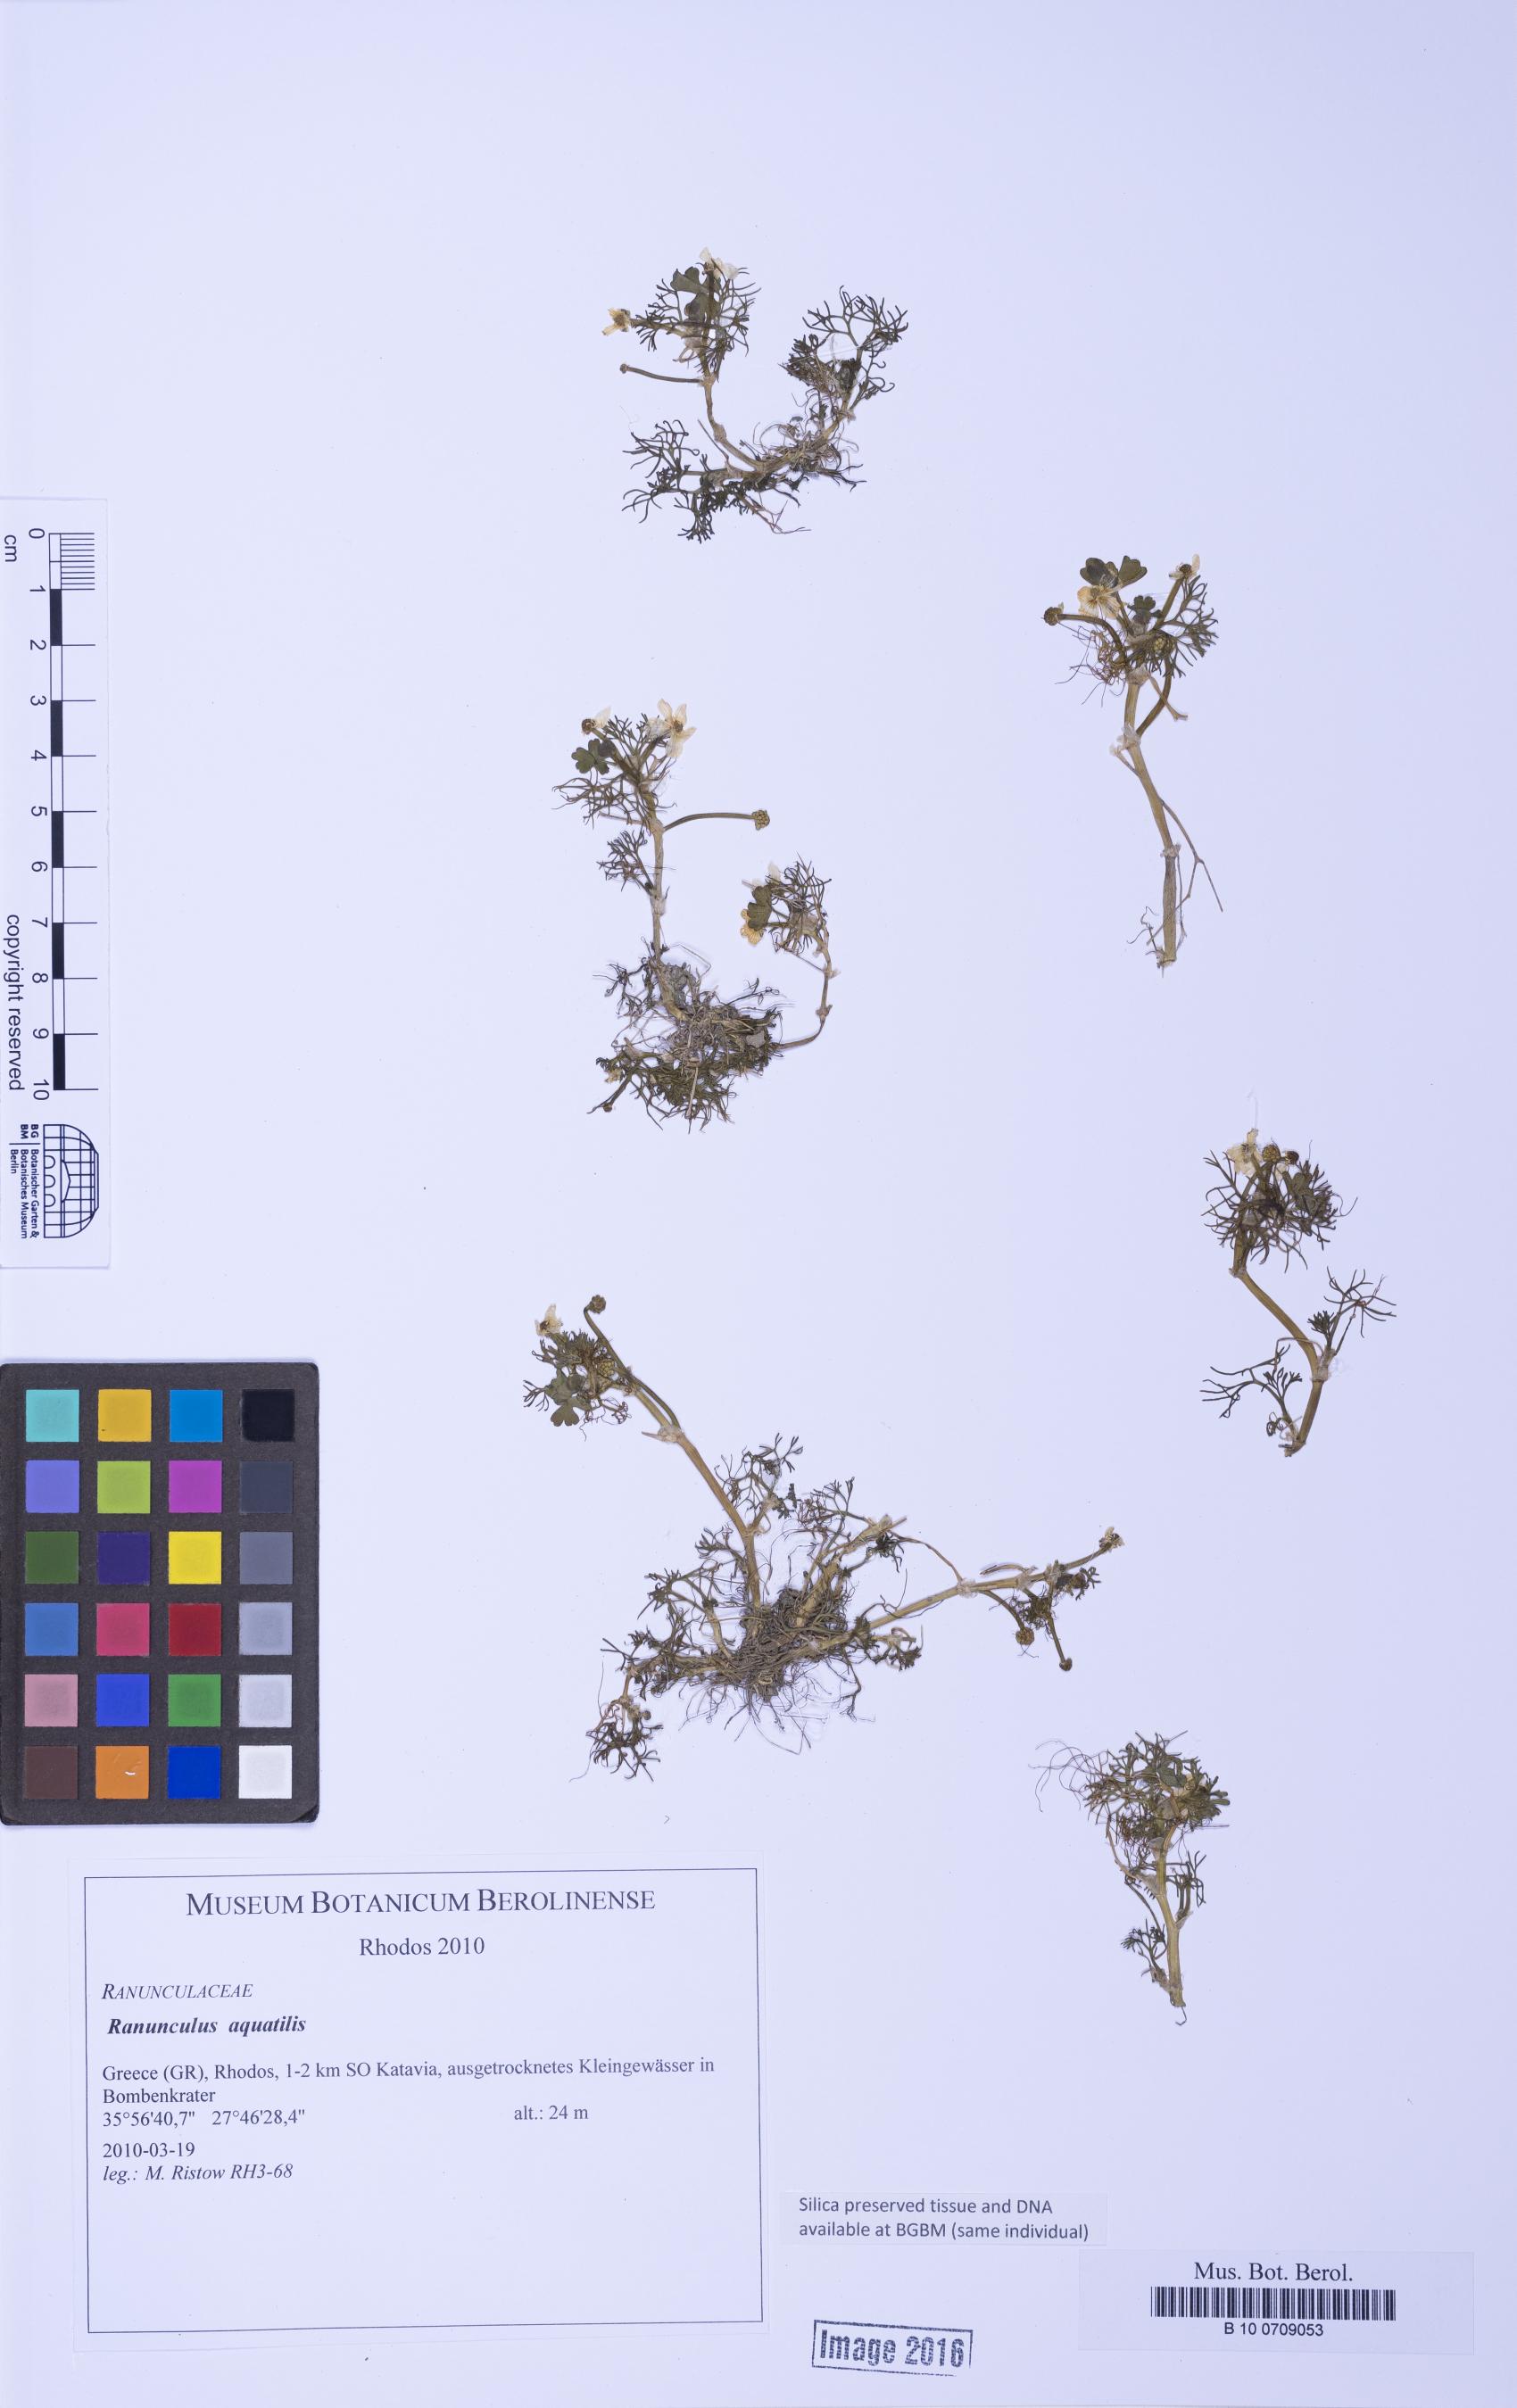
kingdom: Plantae
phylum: Tracheophyta
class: Magnoliopsida
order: Ranunculales
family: Ranunculaceae
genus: Ranunculus
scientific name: Ranunculus peltatus
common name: Pond water-crowfoot
